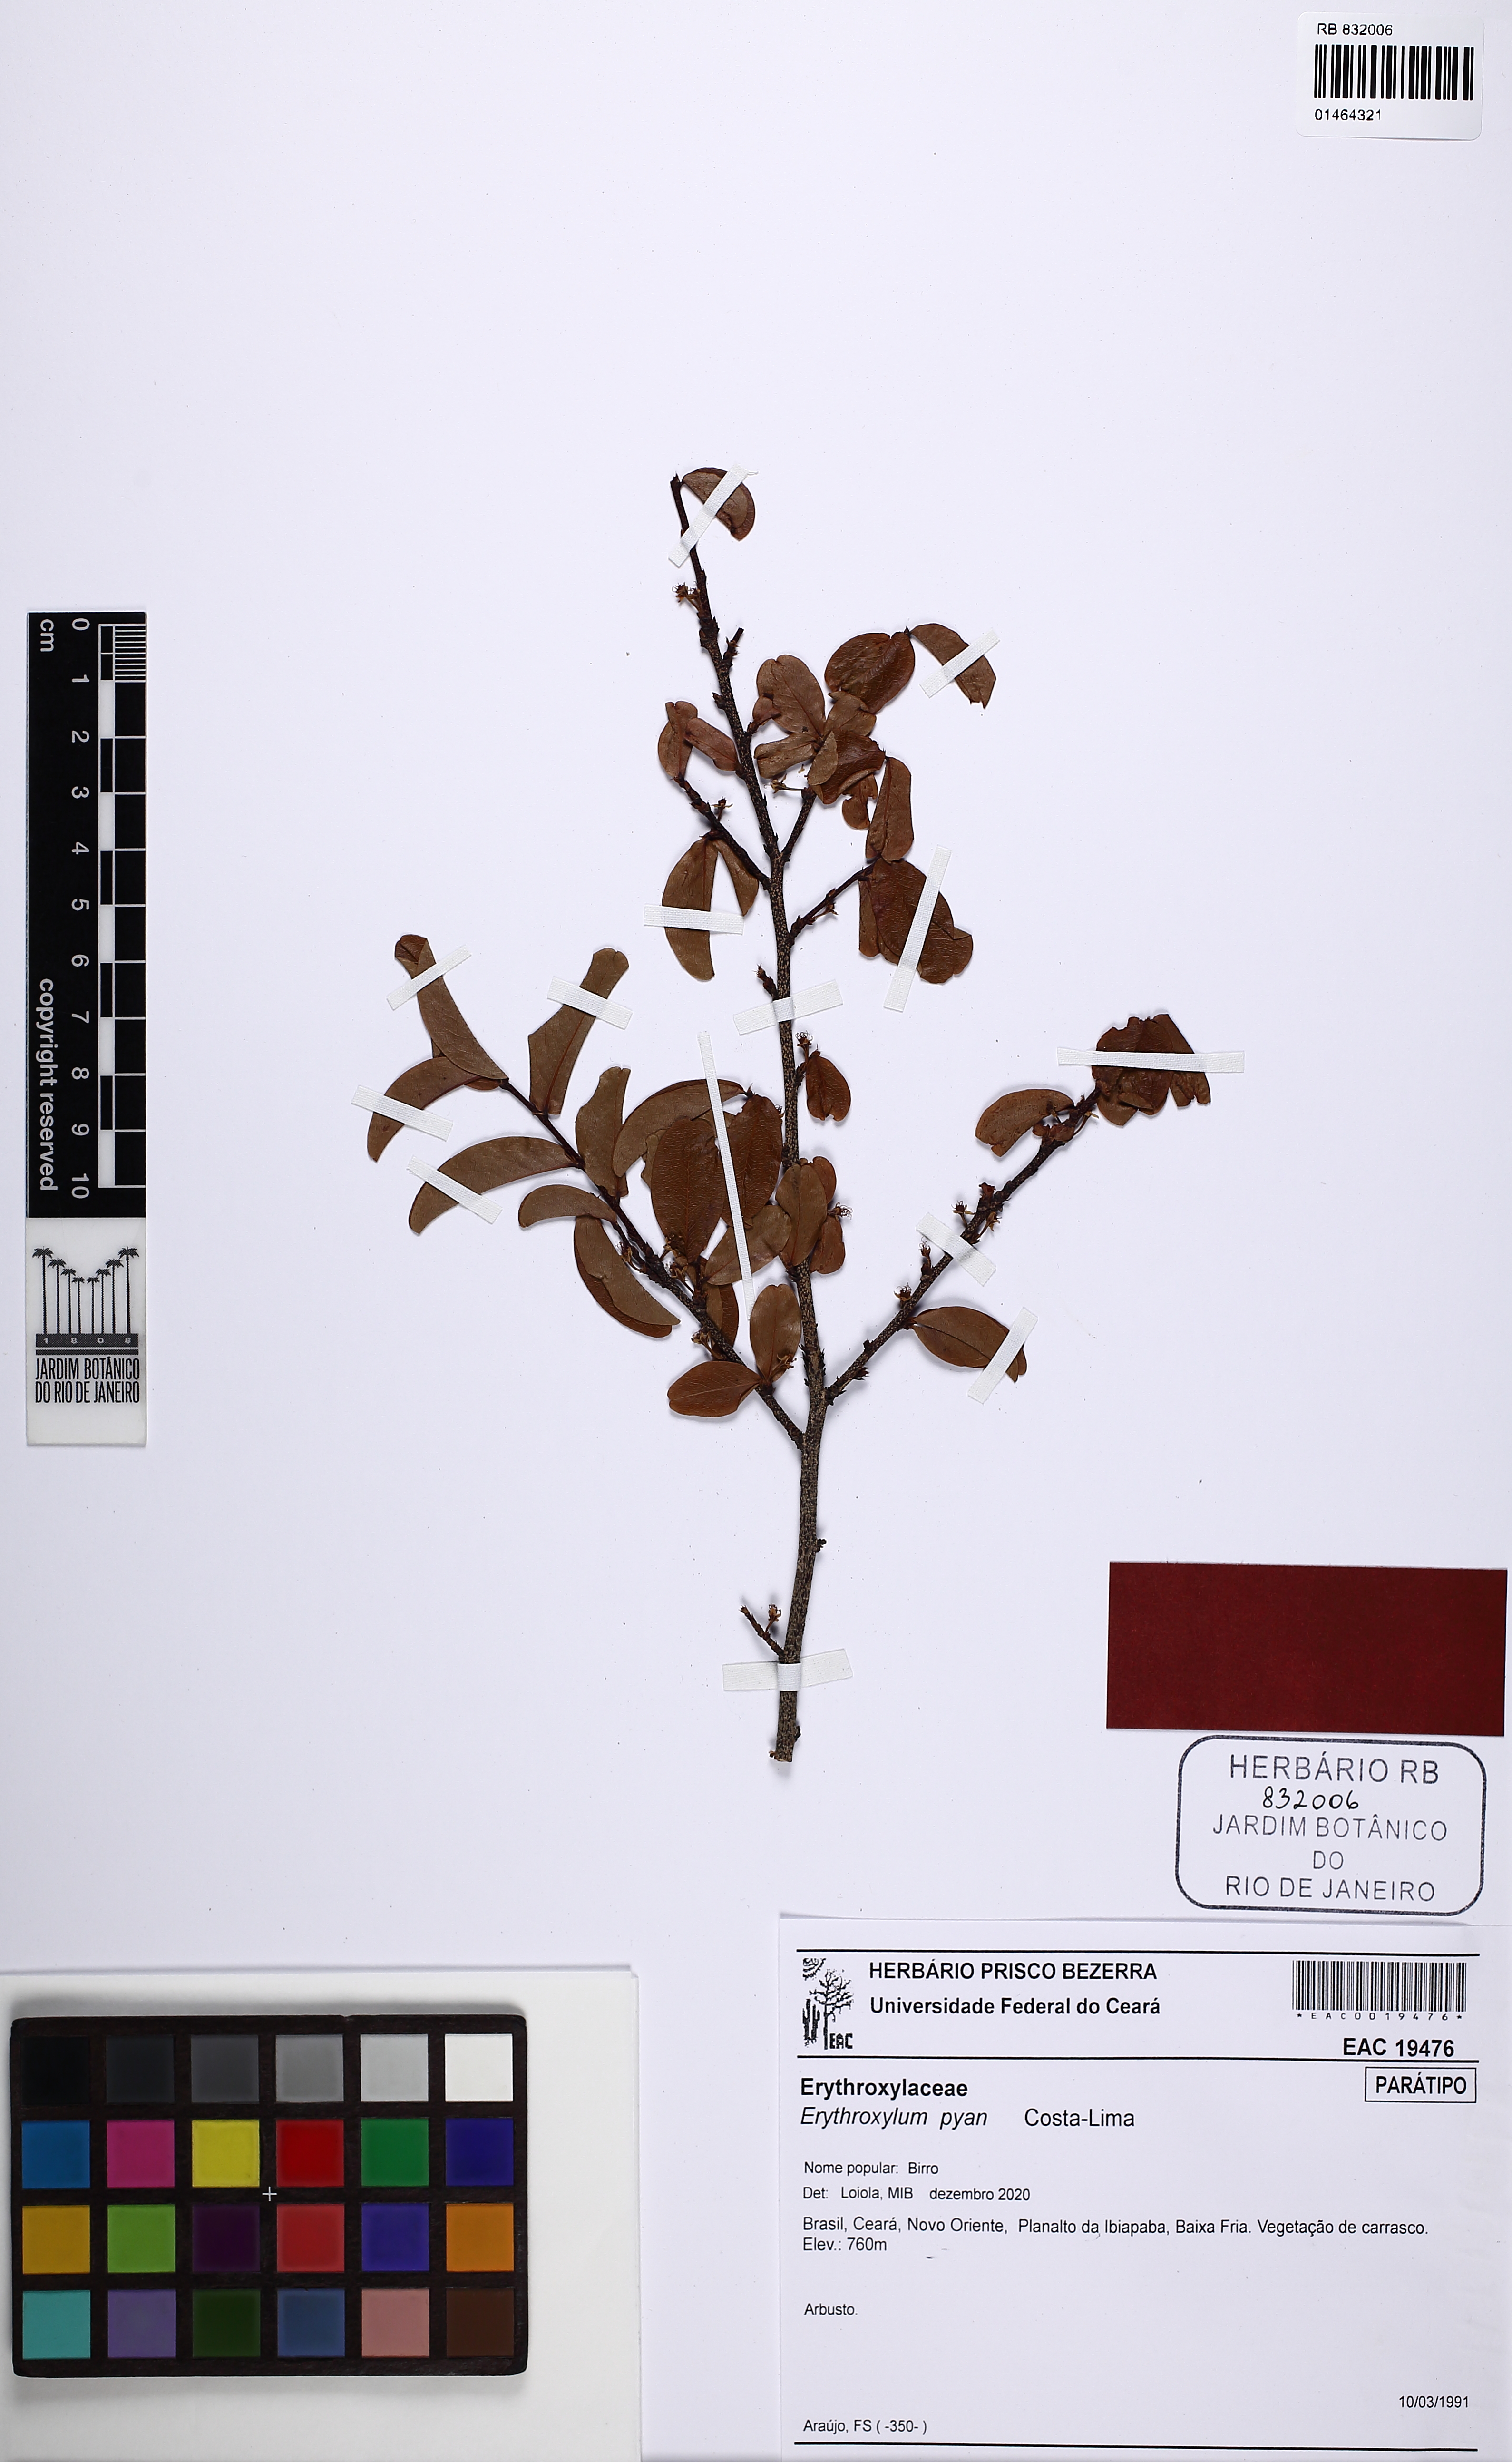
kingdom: Plantae
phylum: Tracheophyta
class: Magnoliopsida
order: Malpighiales
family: Erythroxylaceae
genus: Erythroxylum
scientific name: Erythroxylum pyan
